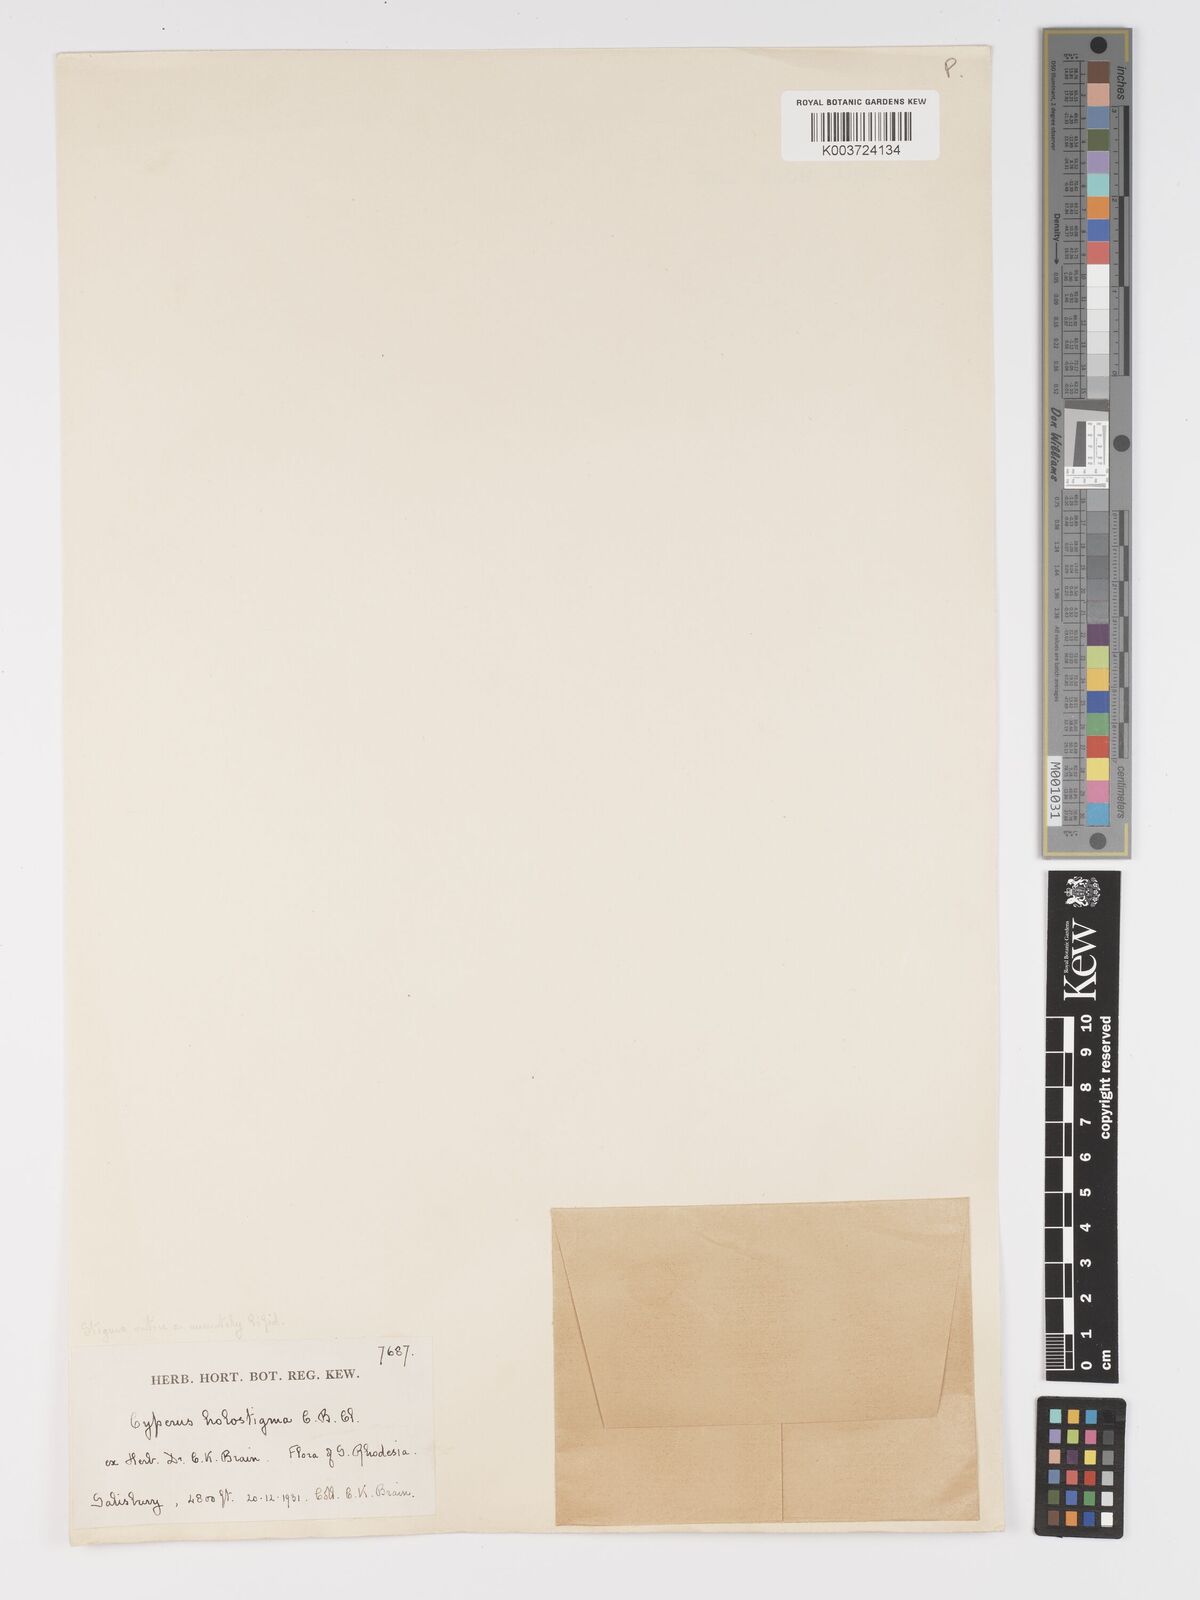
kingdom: Plantae
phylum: Tracheophyta
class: Liliopsida
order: Poales
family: Cyperaceae
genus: Cyperus
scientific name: Cyperus holostigma
